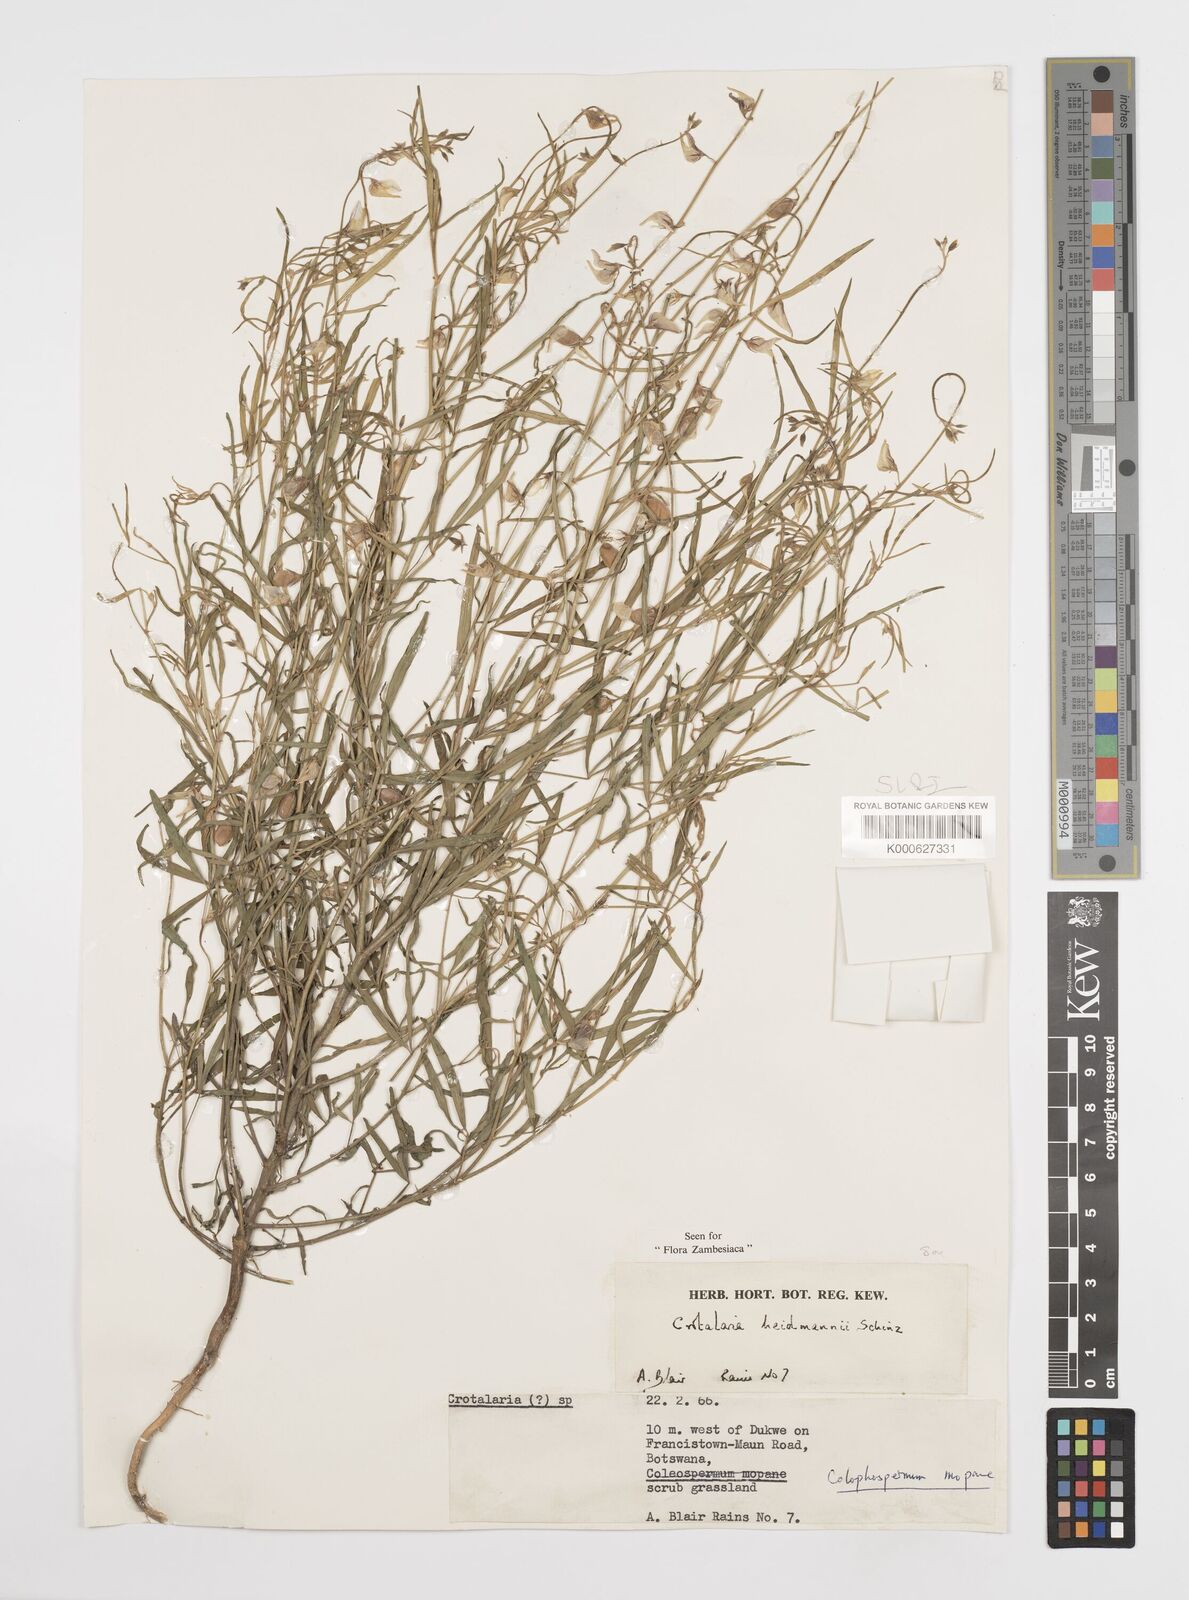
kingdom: Plantae
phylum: Tracheophyta
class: Magnoliopsida
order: Fabales
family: Fabaceae
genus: Crotalaria
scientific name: Crotalaria heidmannii
